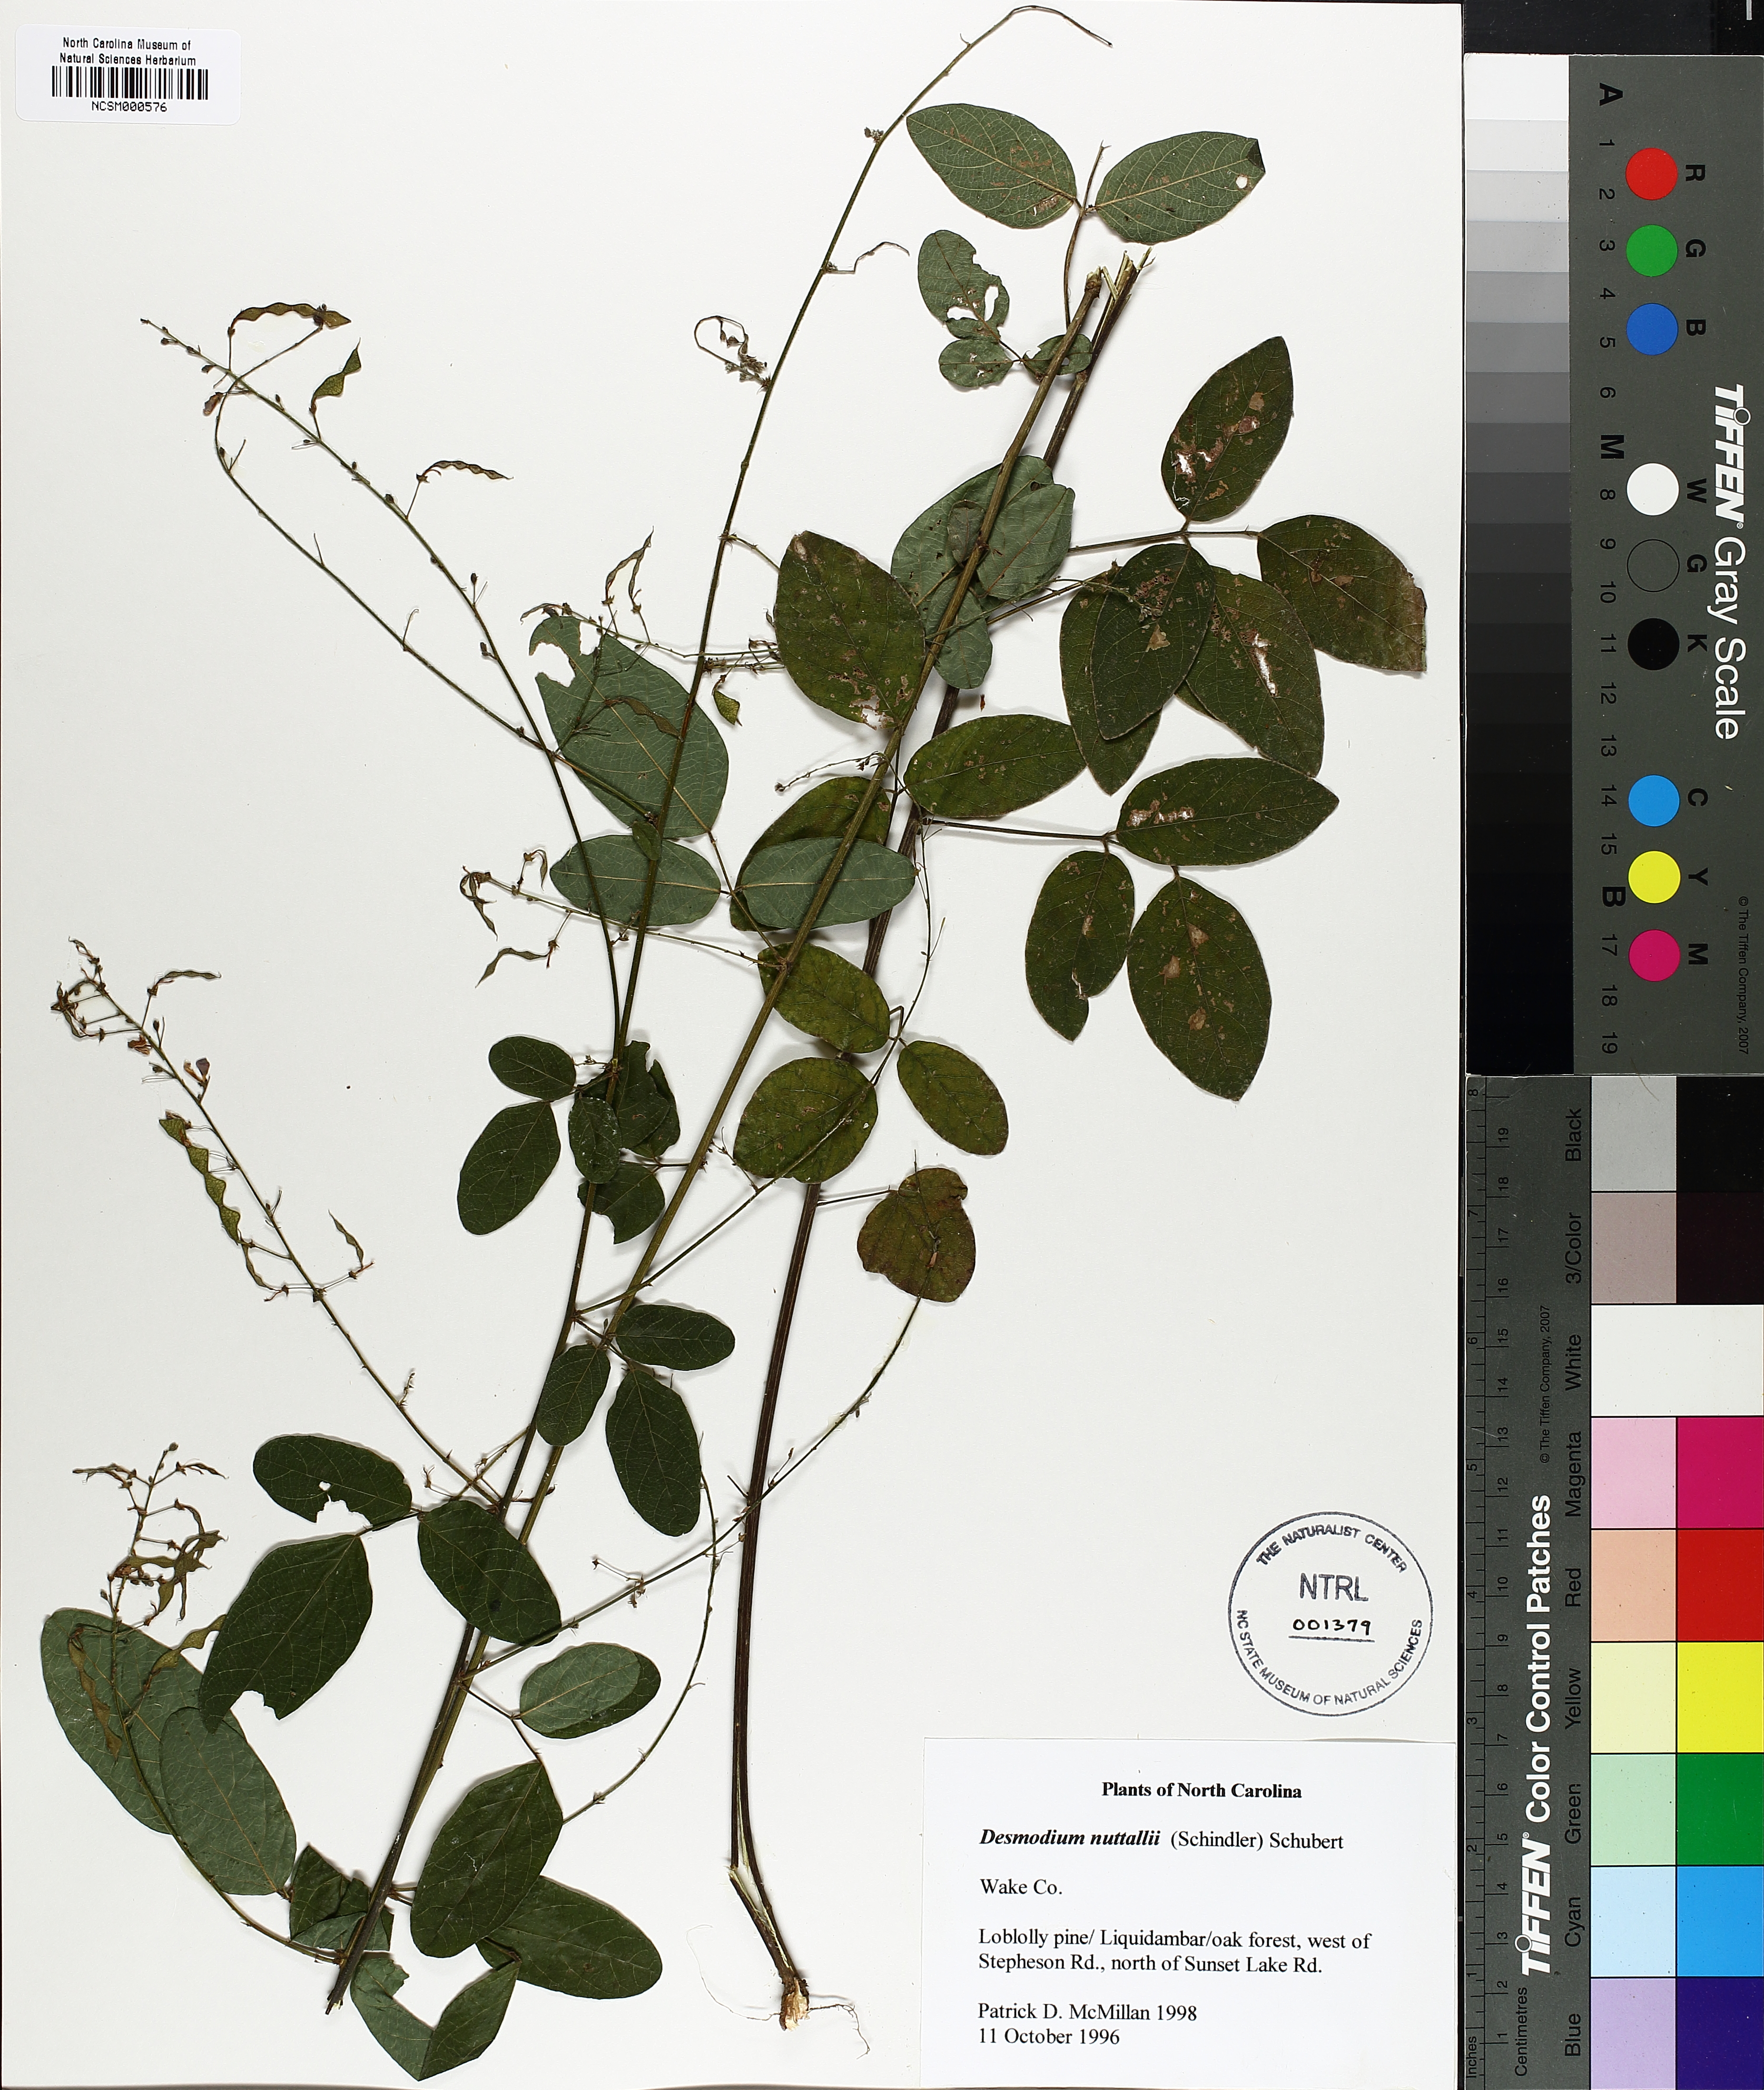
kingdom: Plantae
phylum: Tracheophyta
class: Magnoliopsida
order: Fabales
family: Fabaceae
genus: Desmodium
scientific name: Desmodium nuttallii
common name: Nuttall's tick trefoil
